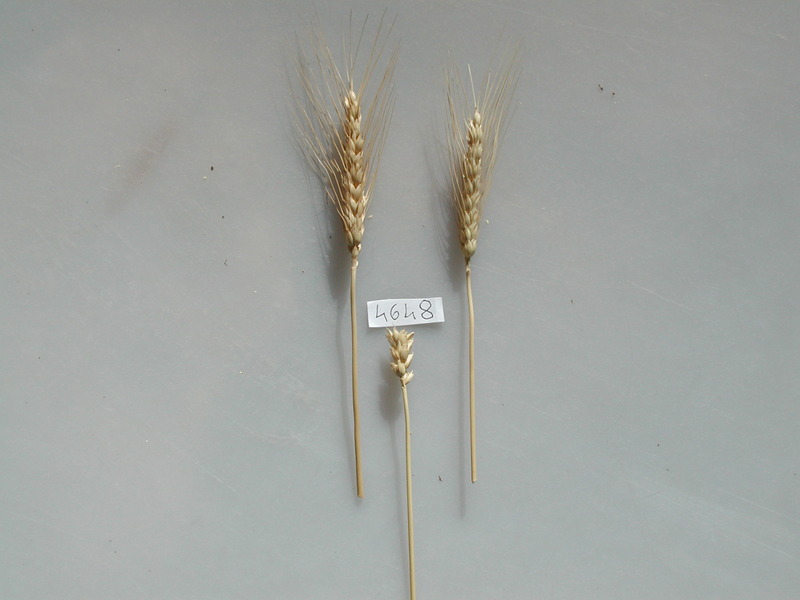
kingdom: Plantae
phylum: Tracheophyta
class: Liliopsida
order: Poales
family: Poaceae
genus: Triticum
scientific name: Triticum aestivum
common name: Wheat
